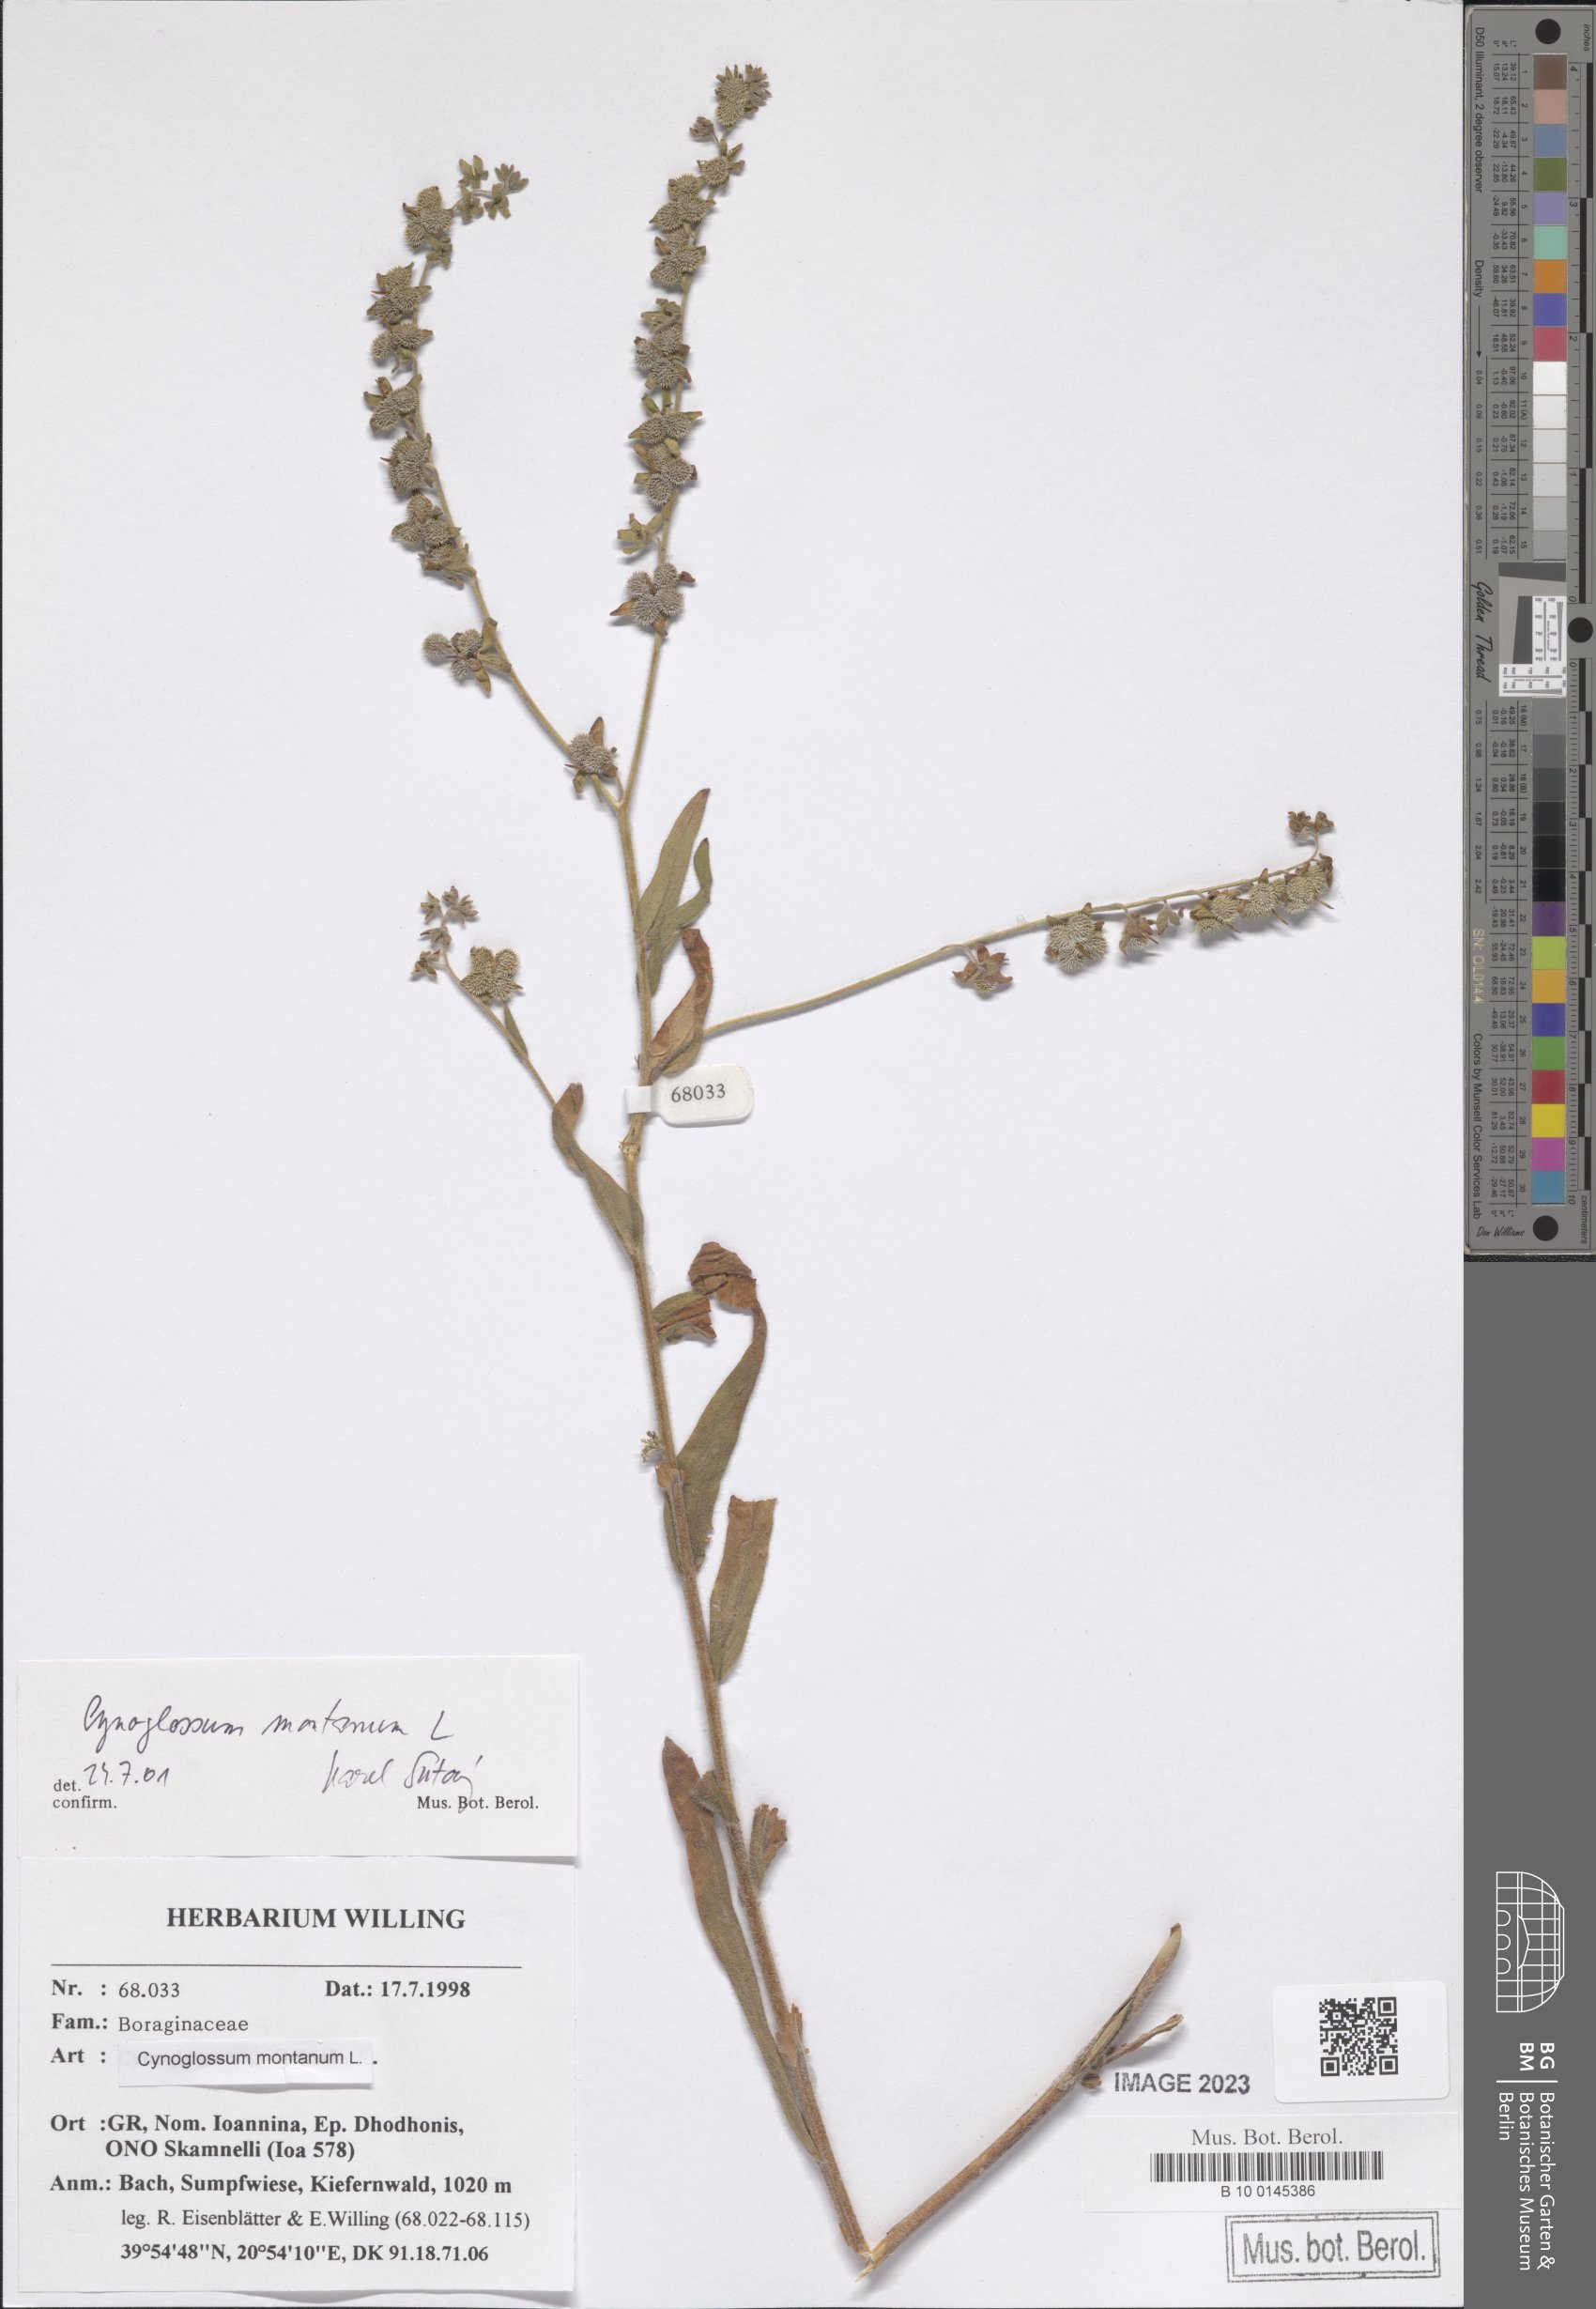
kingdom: Plantae
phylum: Tracheophyta
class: Magnoliopsida
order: Boraginales
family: Boraginaceae
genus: Cynoglossum
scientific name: Cynoglossum montanum
